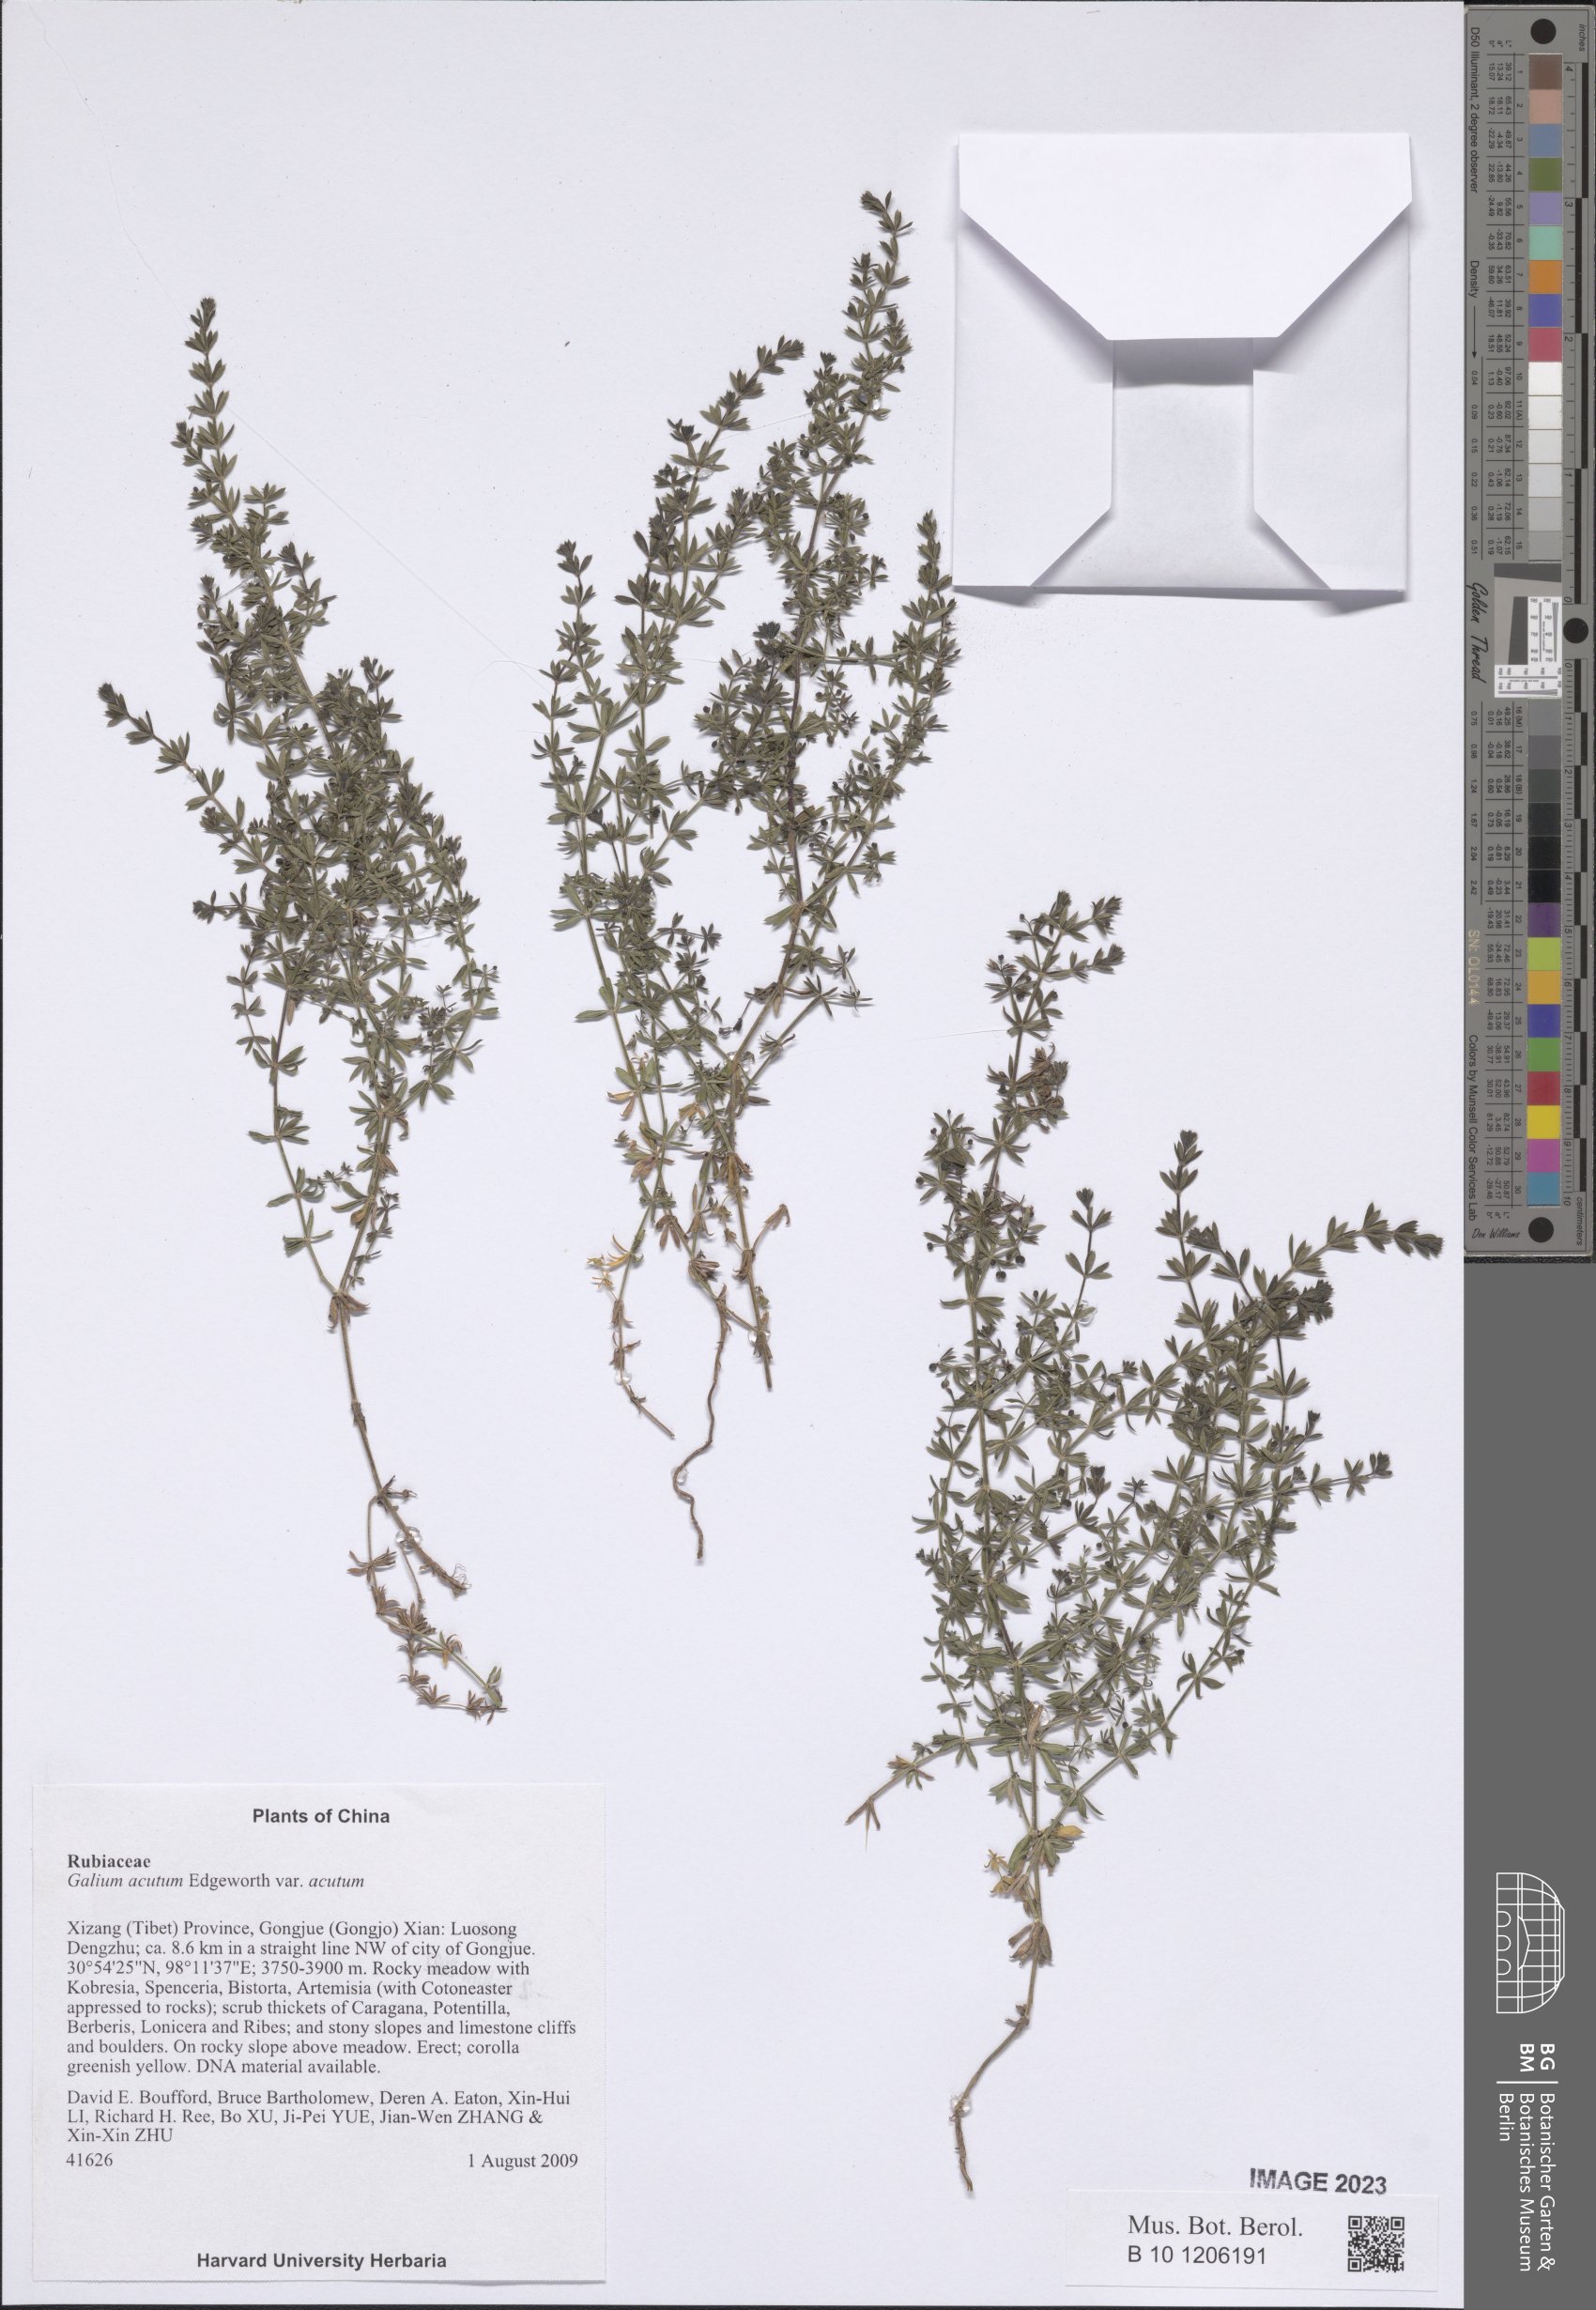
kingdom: Plantae
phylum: Tracheophyta
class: Magnoliopsida
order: Gentianales
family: Rubiaceae
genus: Galium
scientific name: Galium acutum
